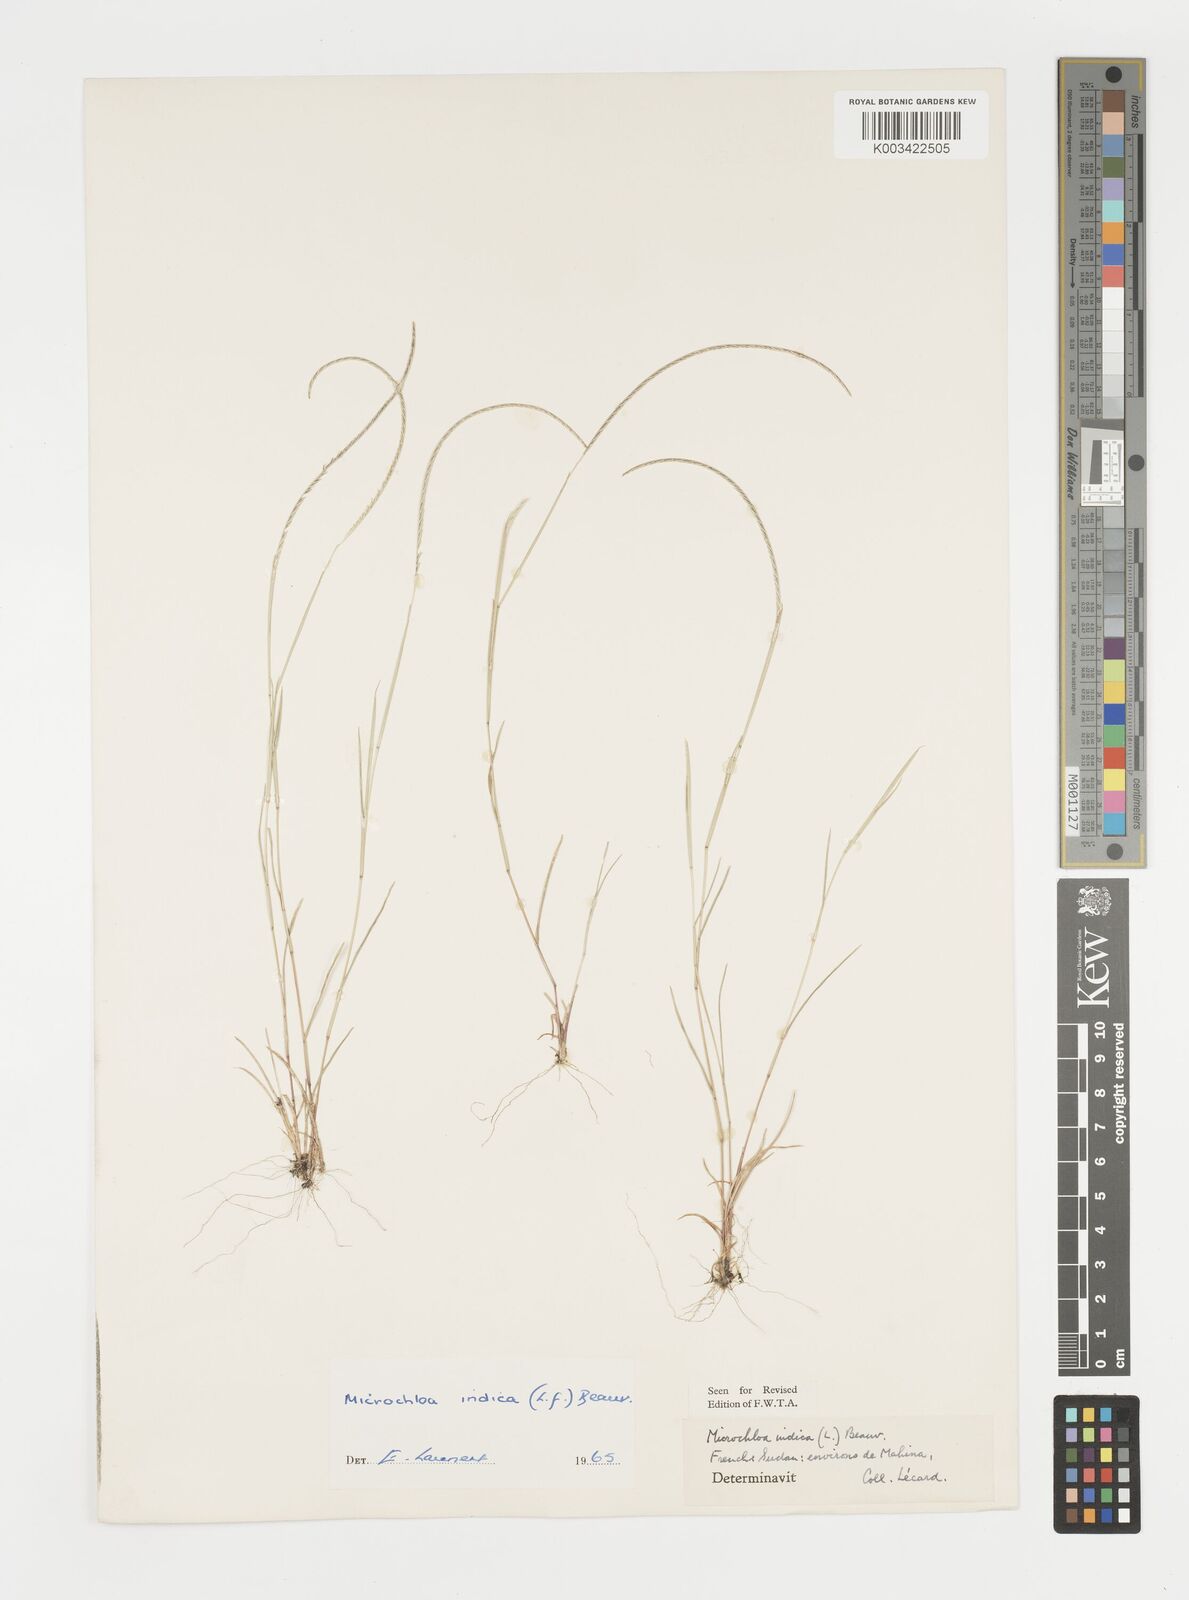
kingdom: Plantae
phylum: Tracheophyta
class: Liliopsida
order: Poales
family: Poaceae
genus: Microchloa
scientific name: Microchloa indica
